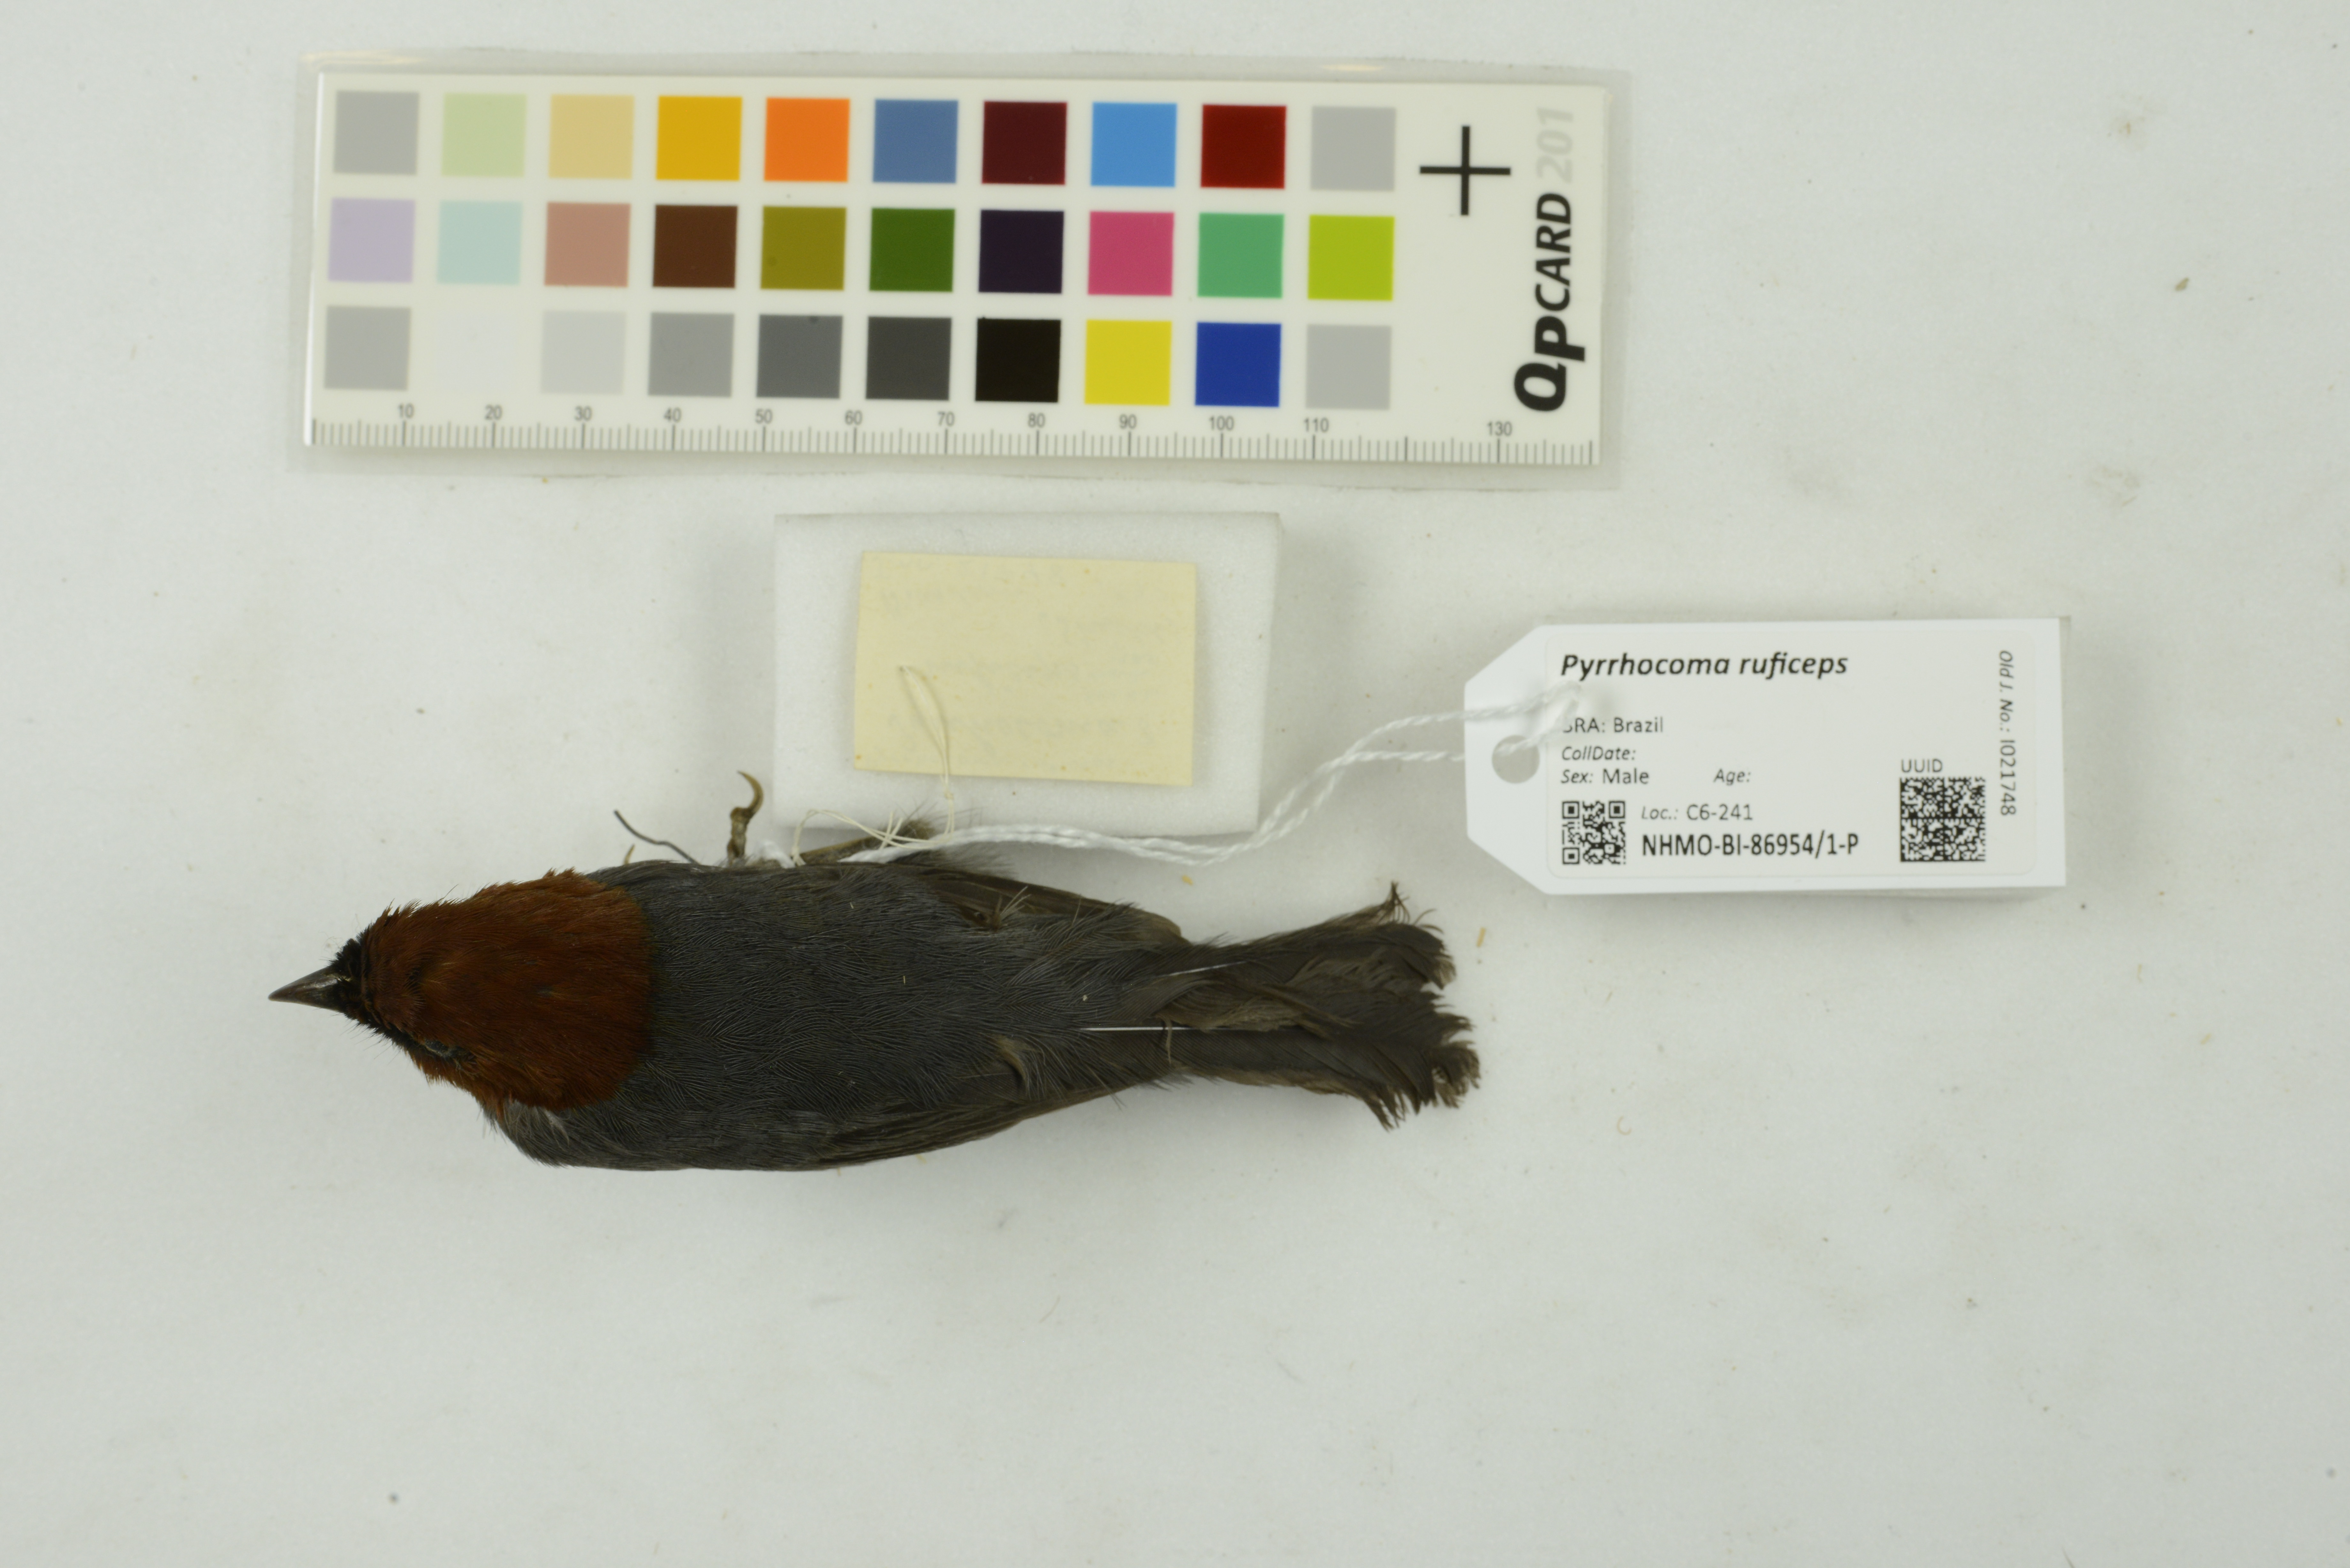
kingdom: Animalia
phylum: Chordata
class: Aves
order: Passeriformes
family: Thraupidae
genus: Thlypopsis
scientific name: Thlypopsis pyrrhocoma
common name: Chestnut-headed tanager
